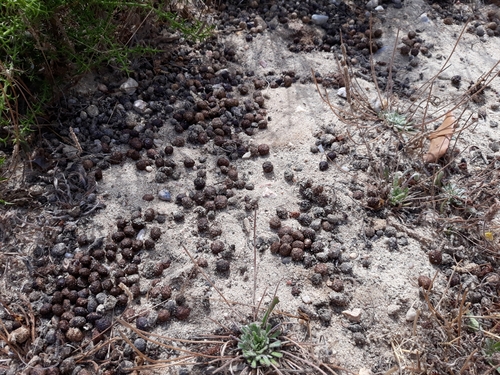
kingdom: Animalia
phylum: Chordata
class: Mammalia
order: Lagomorpha
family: Leporidae
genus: Oryctolagus
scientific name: Oryctolagus cuniculus
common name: European rabbit
